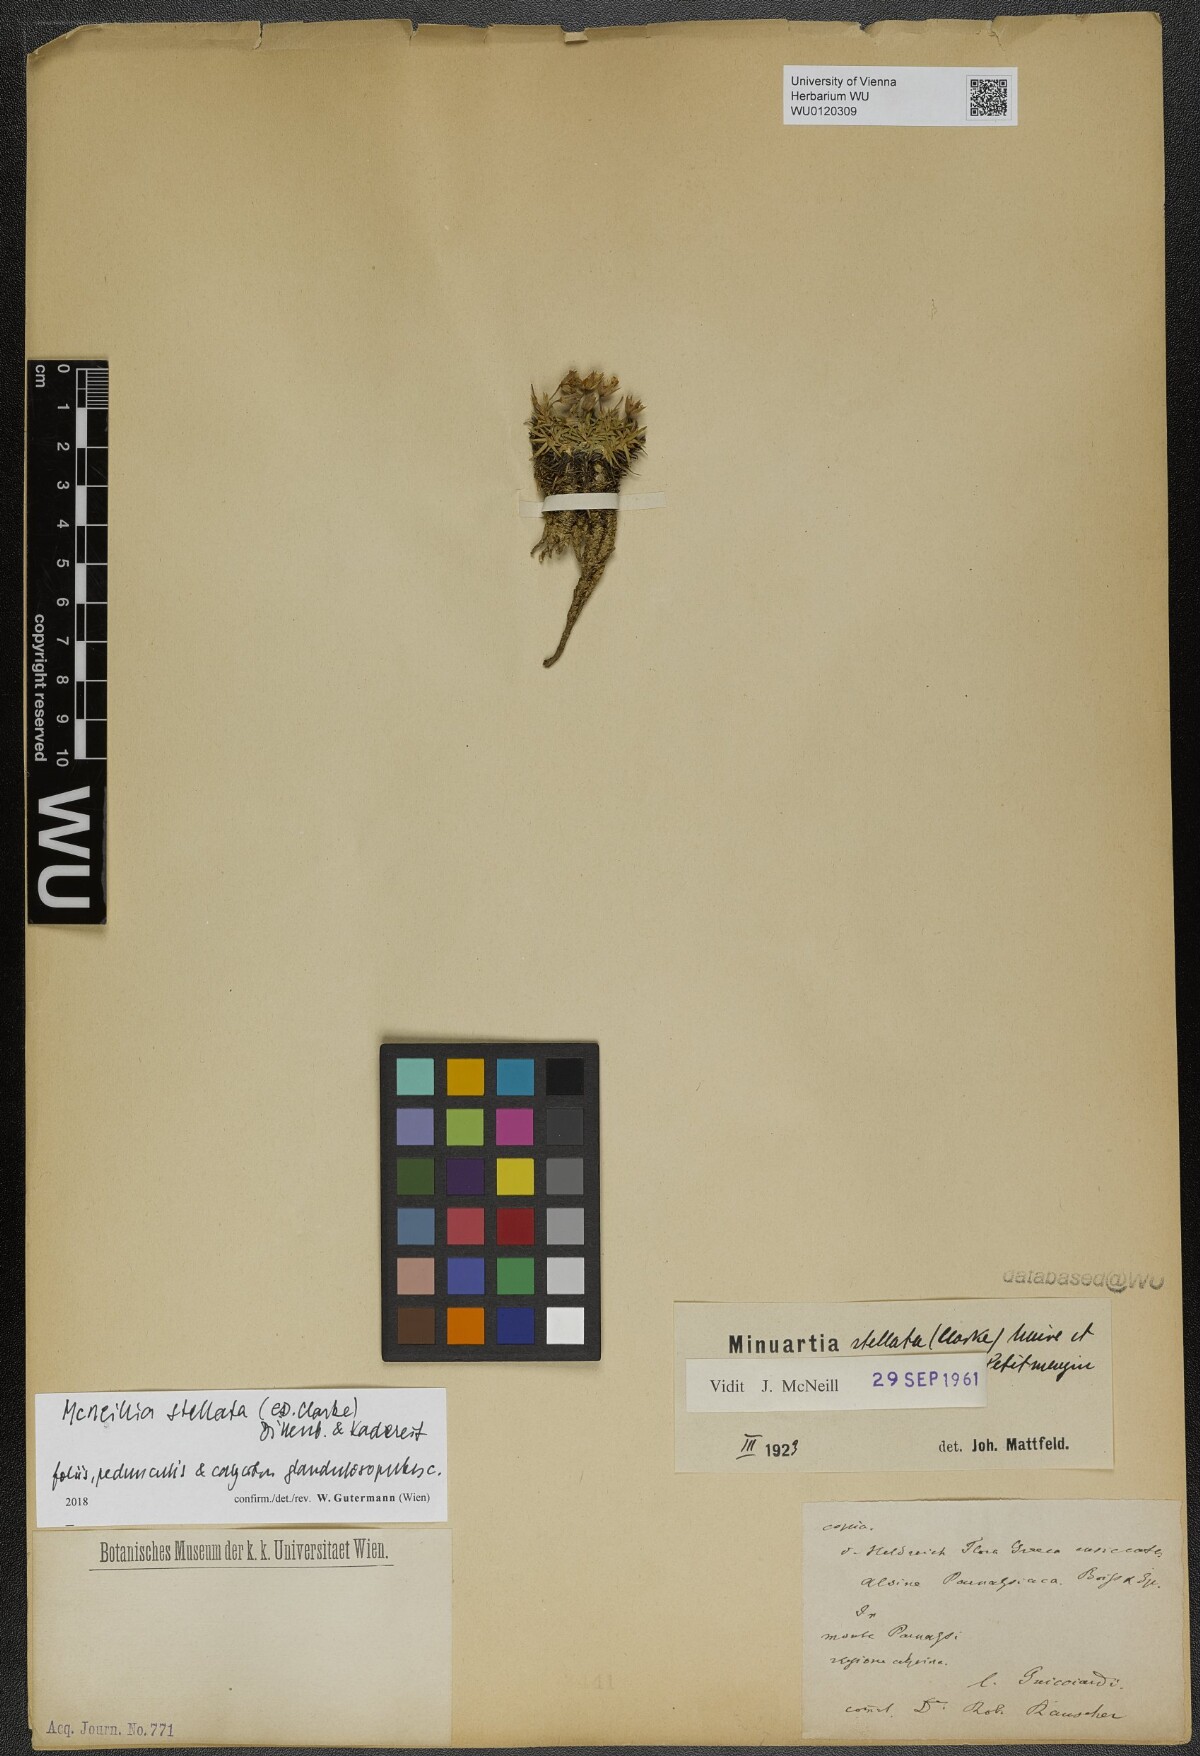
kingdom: Plantae
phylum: Tracheophyta
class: Magnoliopsida
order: Caryophyllales
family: Caryophyllaceae
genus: Mcneillia
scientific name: Mcneillia stellata
